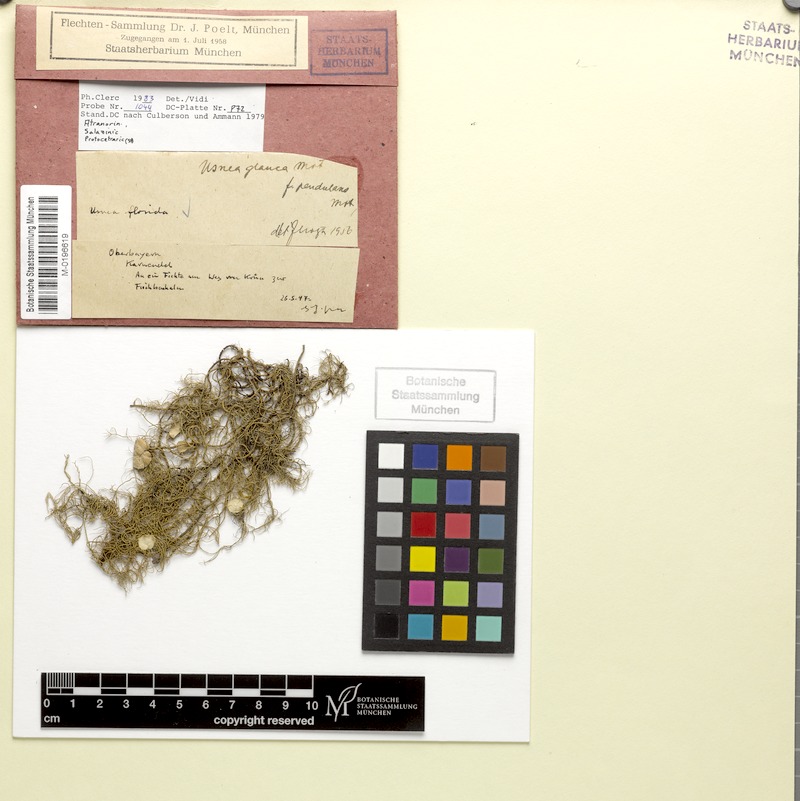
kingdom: Fungi
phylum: Ascomycota
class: Lecanoromycetes
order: Lecanorales
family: Parmeliaceae
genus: Usnea
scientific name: Usnea glauca
